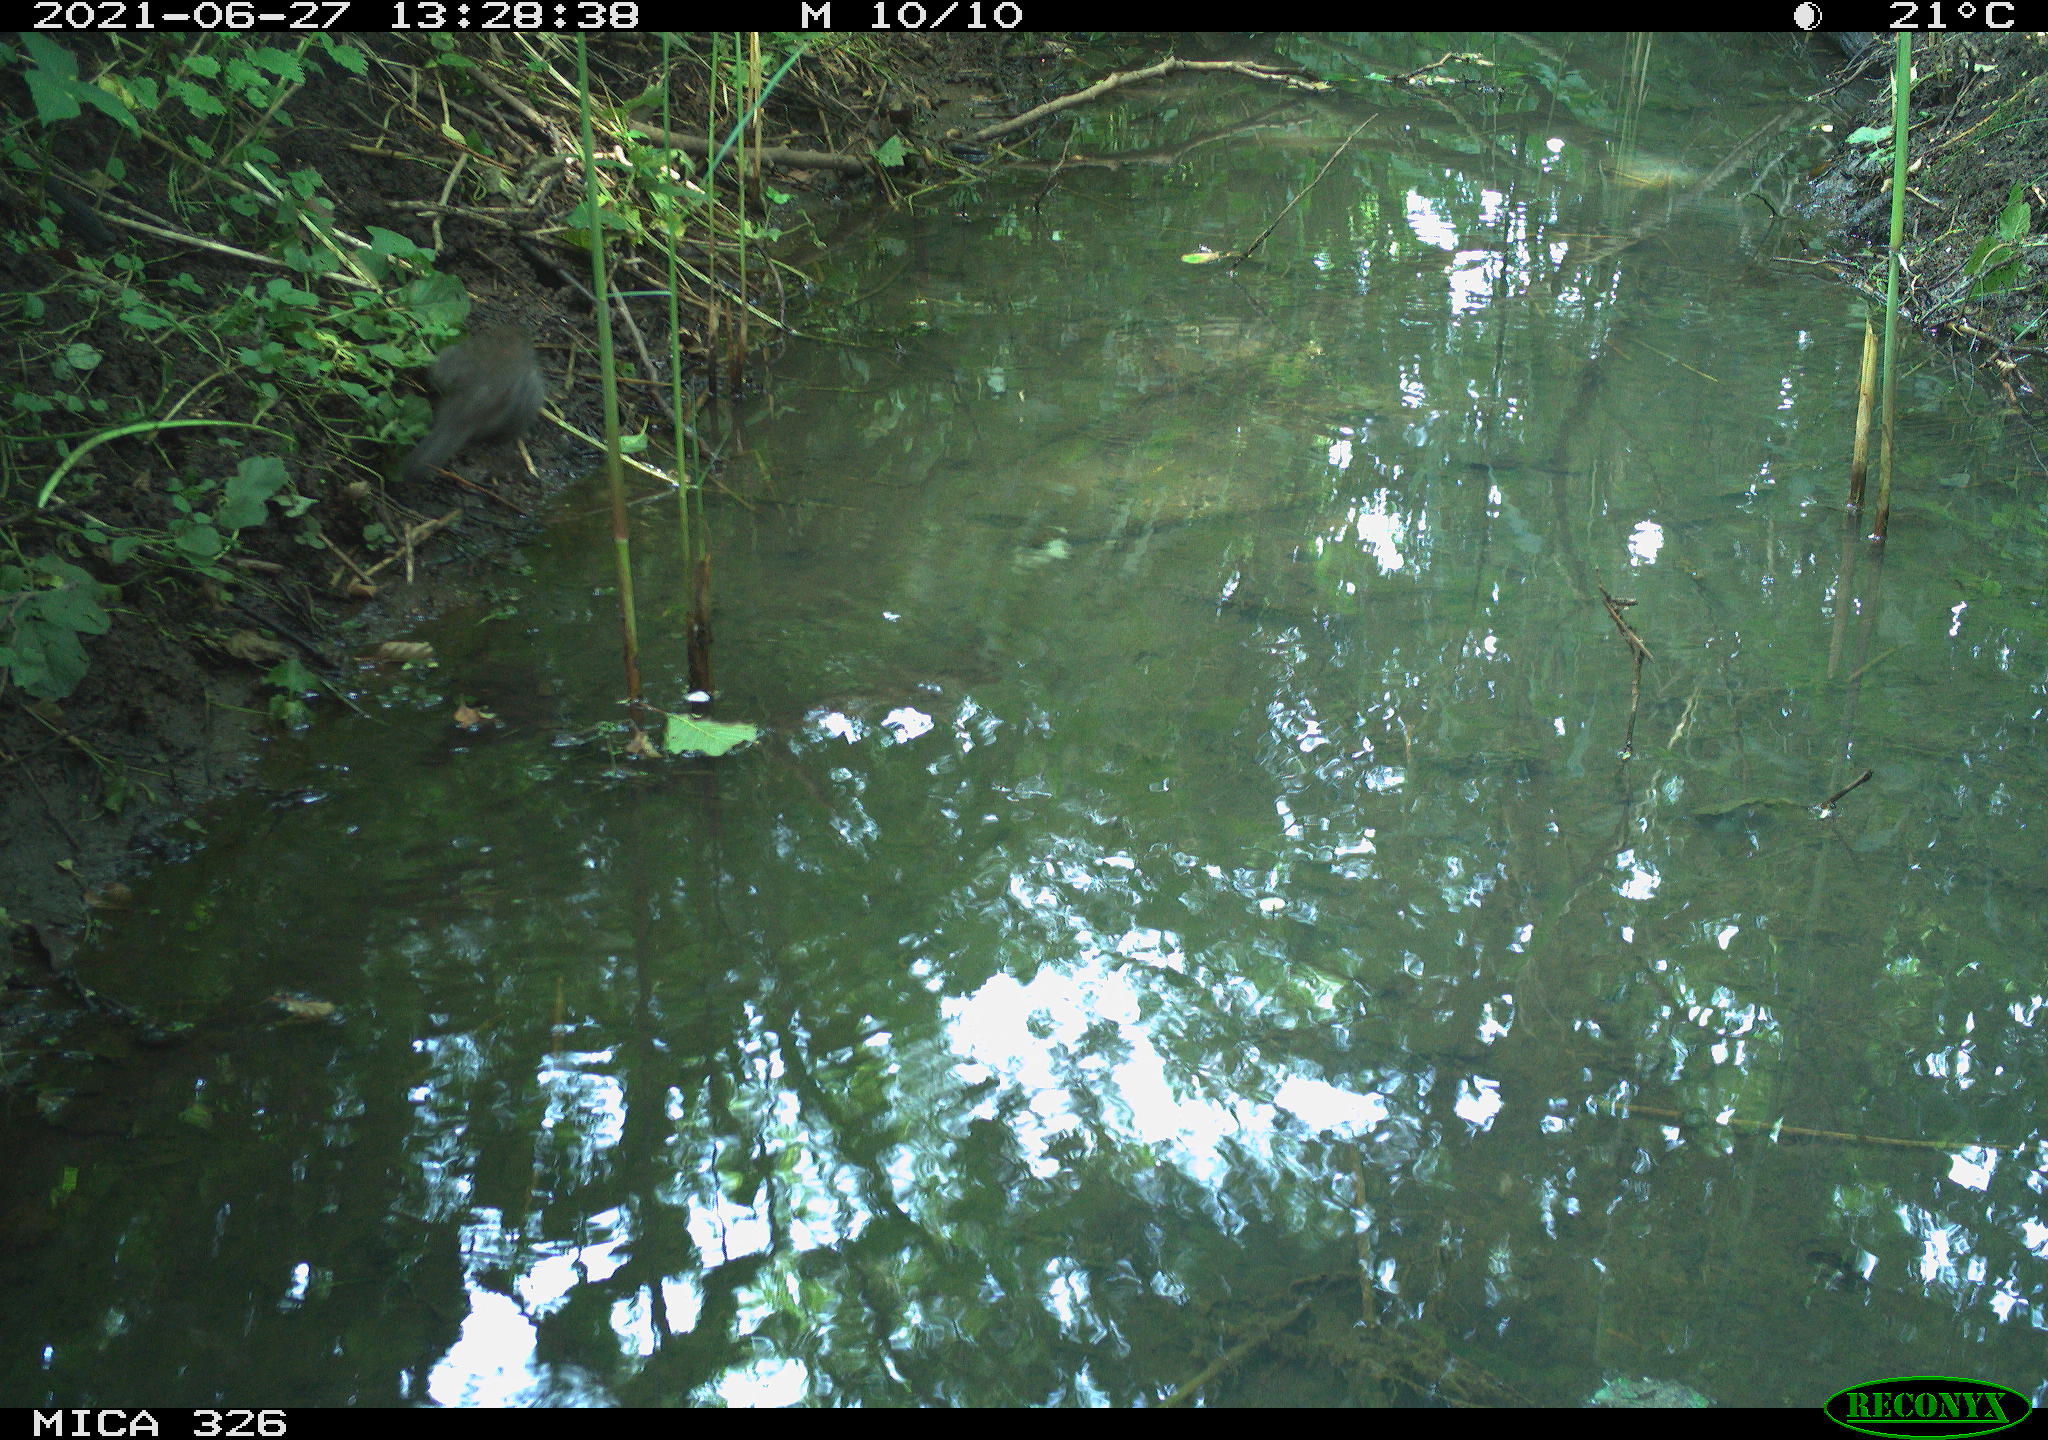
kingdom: Animalia
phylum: Chordata
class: Aves
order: Passeriformes
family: Turdidae
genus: Turdus
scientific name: Turdus merula
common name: Common blackbird
